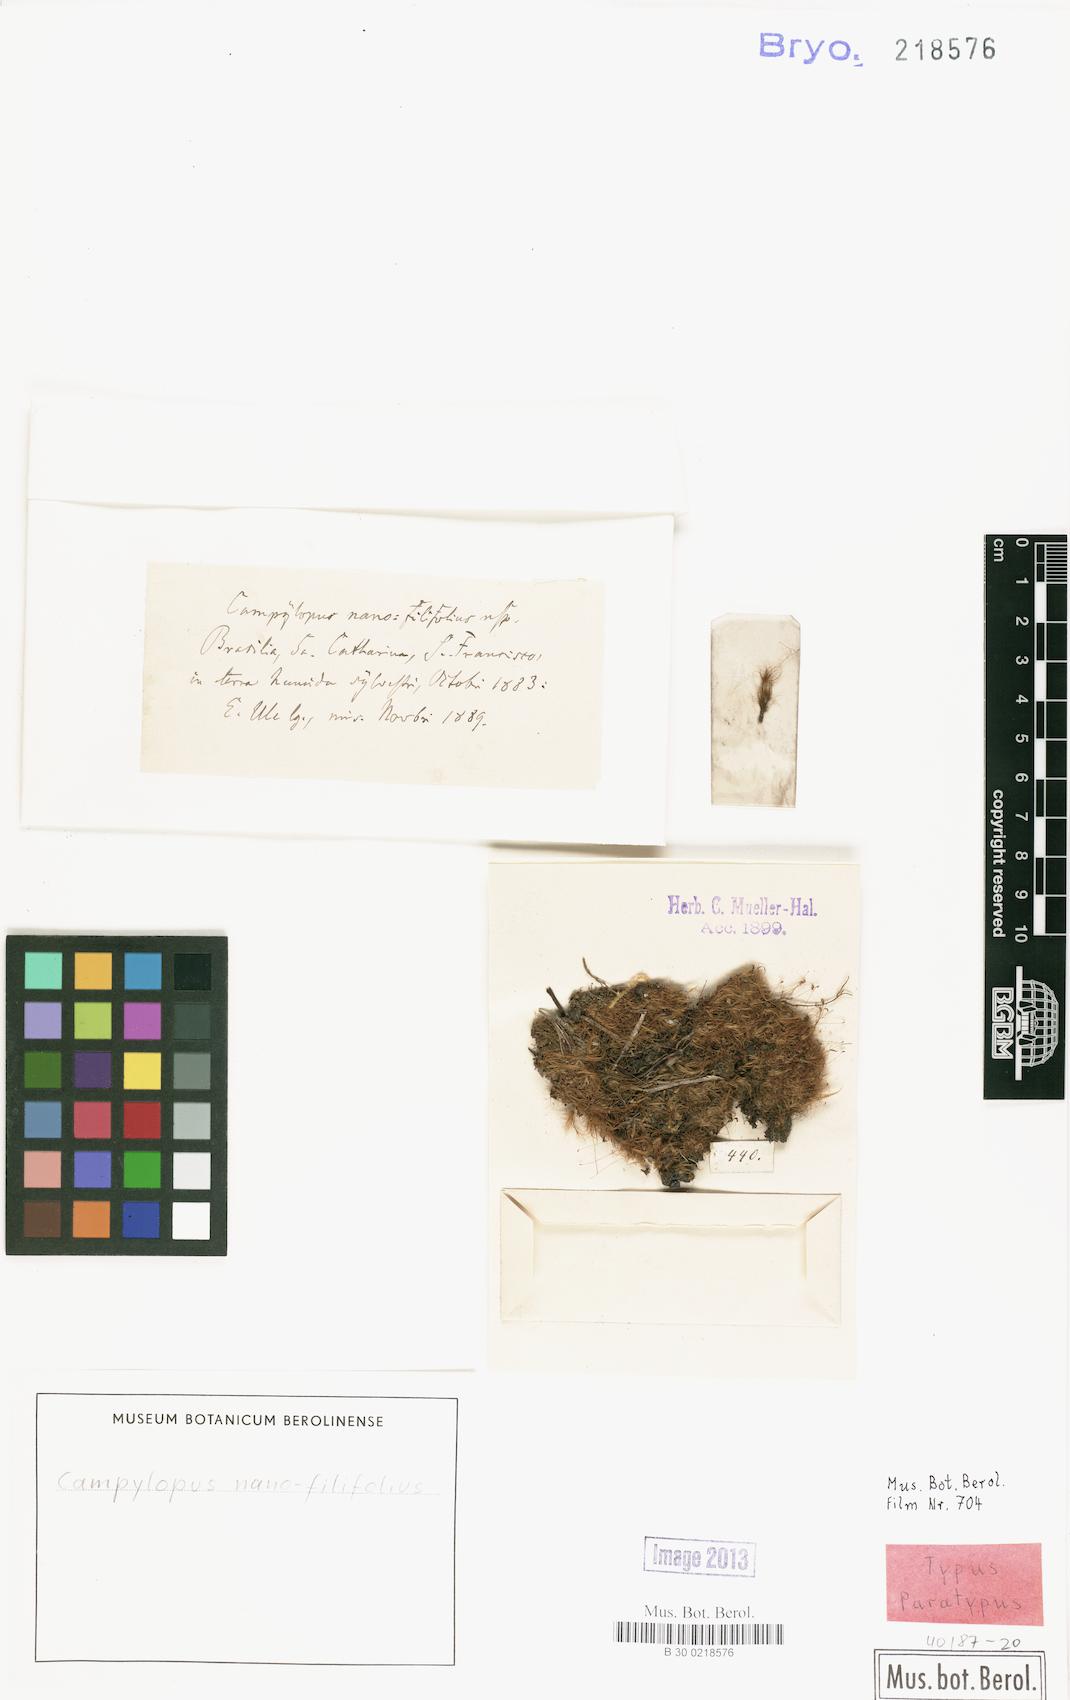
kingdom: Plantae
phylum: Bryophyta
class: Bryopsida
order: Dicranales
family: Leucobryaceae
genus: Campylopus
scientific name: Campylopus filifolius
